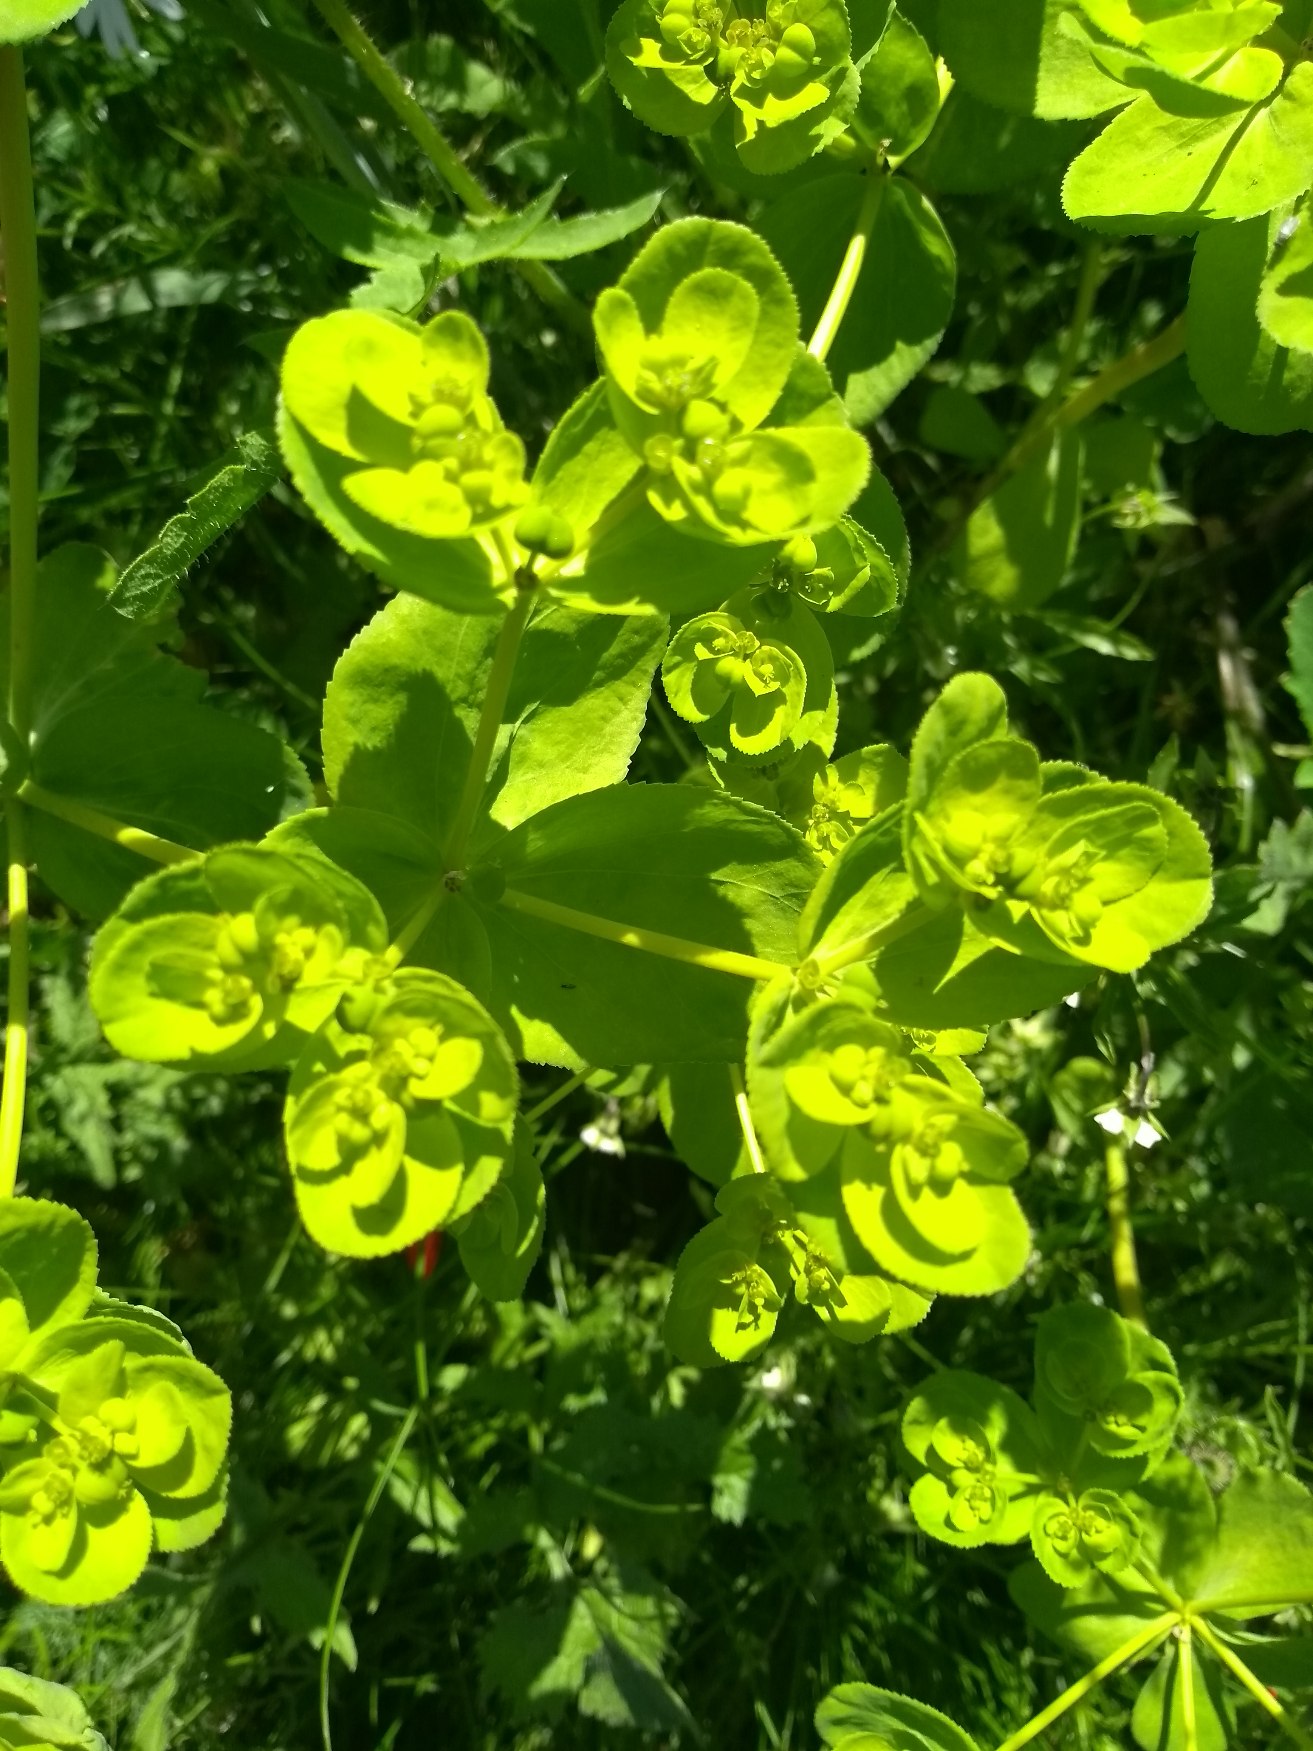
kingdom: Plantae
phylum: Tracheophyta
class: Magnoliopsida
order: Malpighiales
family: Euphorbiaceae
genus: Euphorbia
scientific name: Euphorbia helioscopia
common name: Skærm-vortemælk
